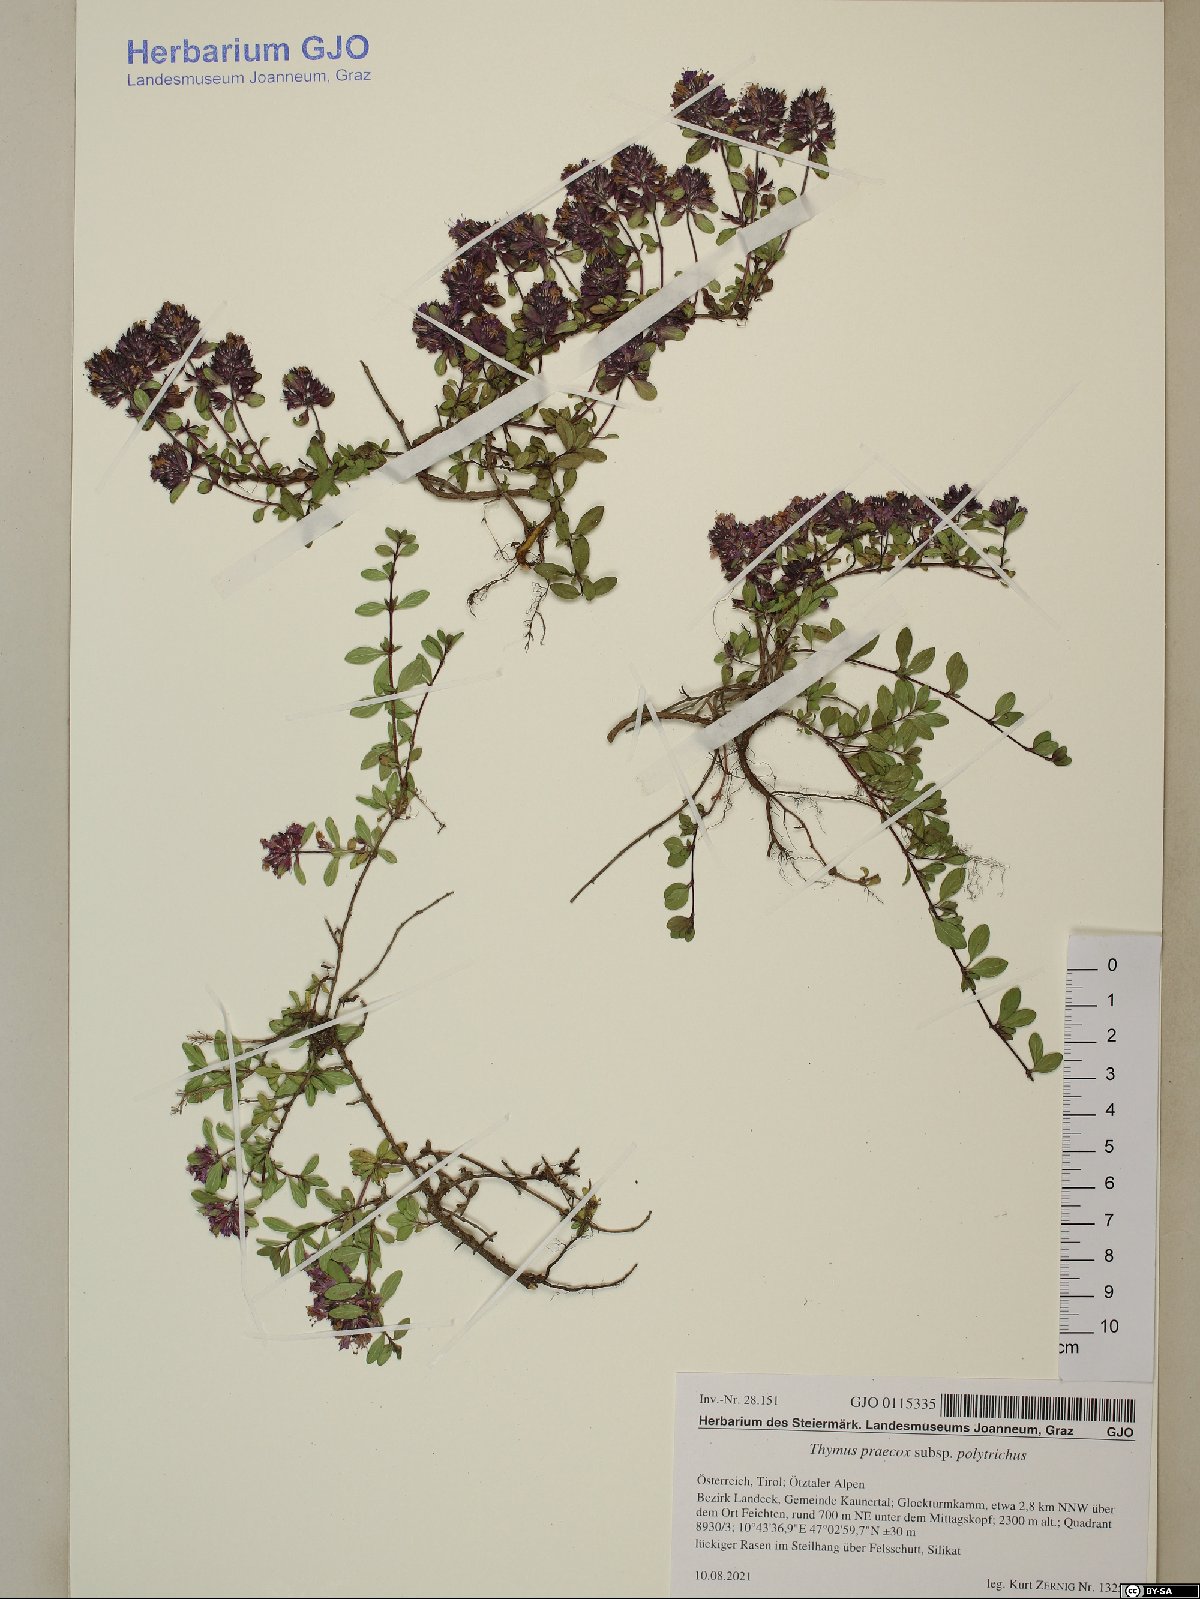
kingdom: Plantae
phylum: Tracheophyta
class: Magnoliopsida
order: Lamiales
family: Lamiaceae
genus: Thymus
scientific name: Thymus praecox
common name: Wild thyme
